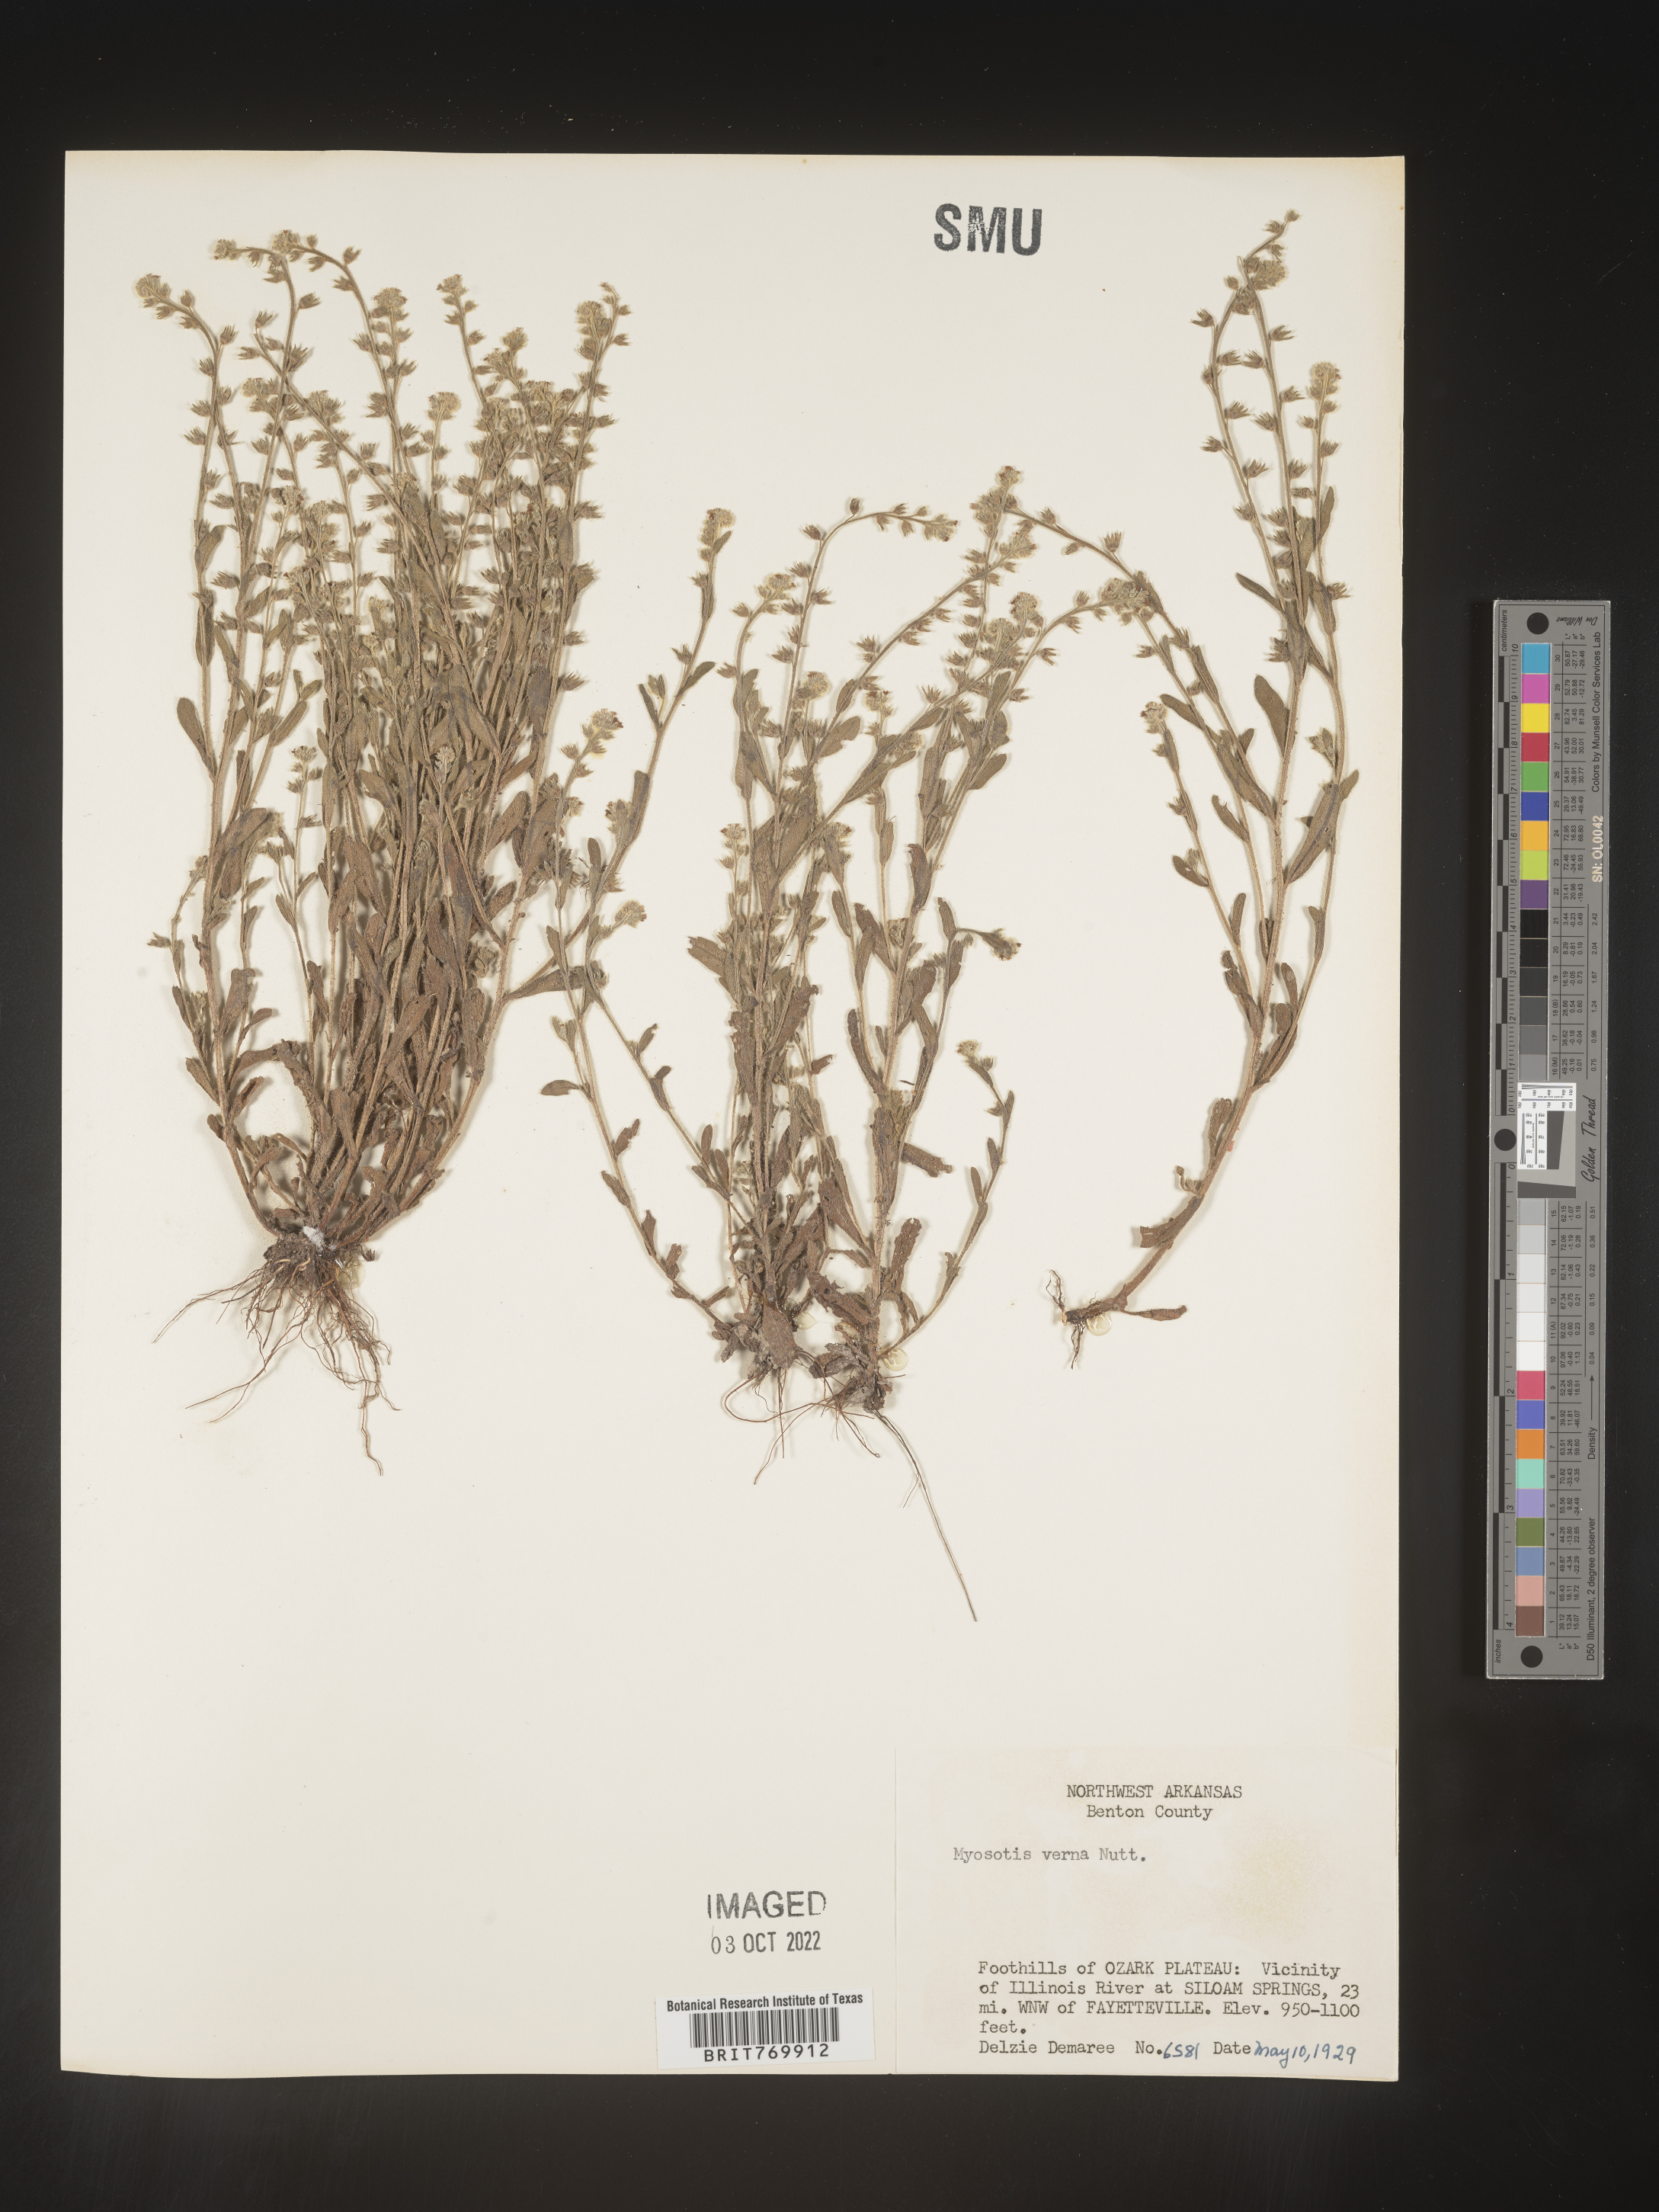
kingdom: Plantae
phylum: Tracheophyta
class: Magnoliopsida
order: Boraginales
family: Boraginaceae
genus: Myosotis
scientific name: Myosotis verna
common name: Early forget-me-not
